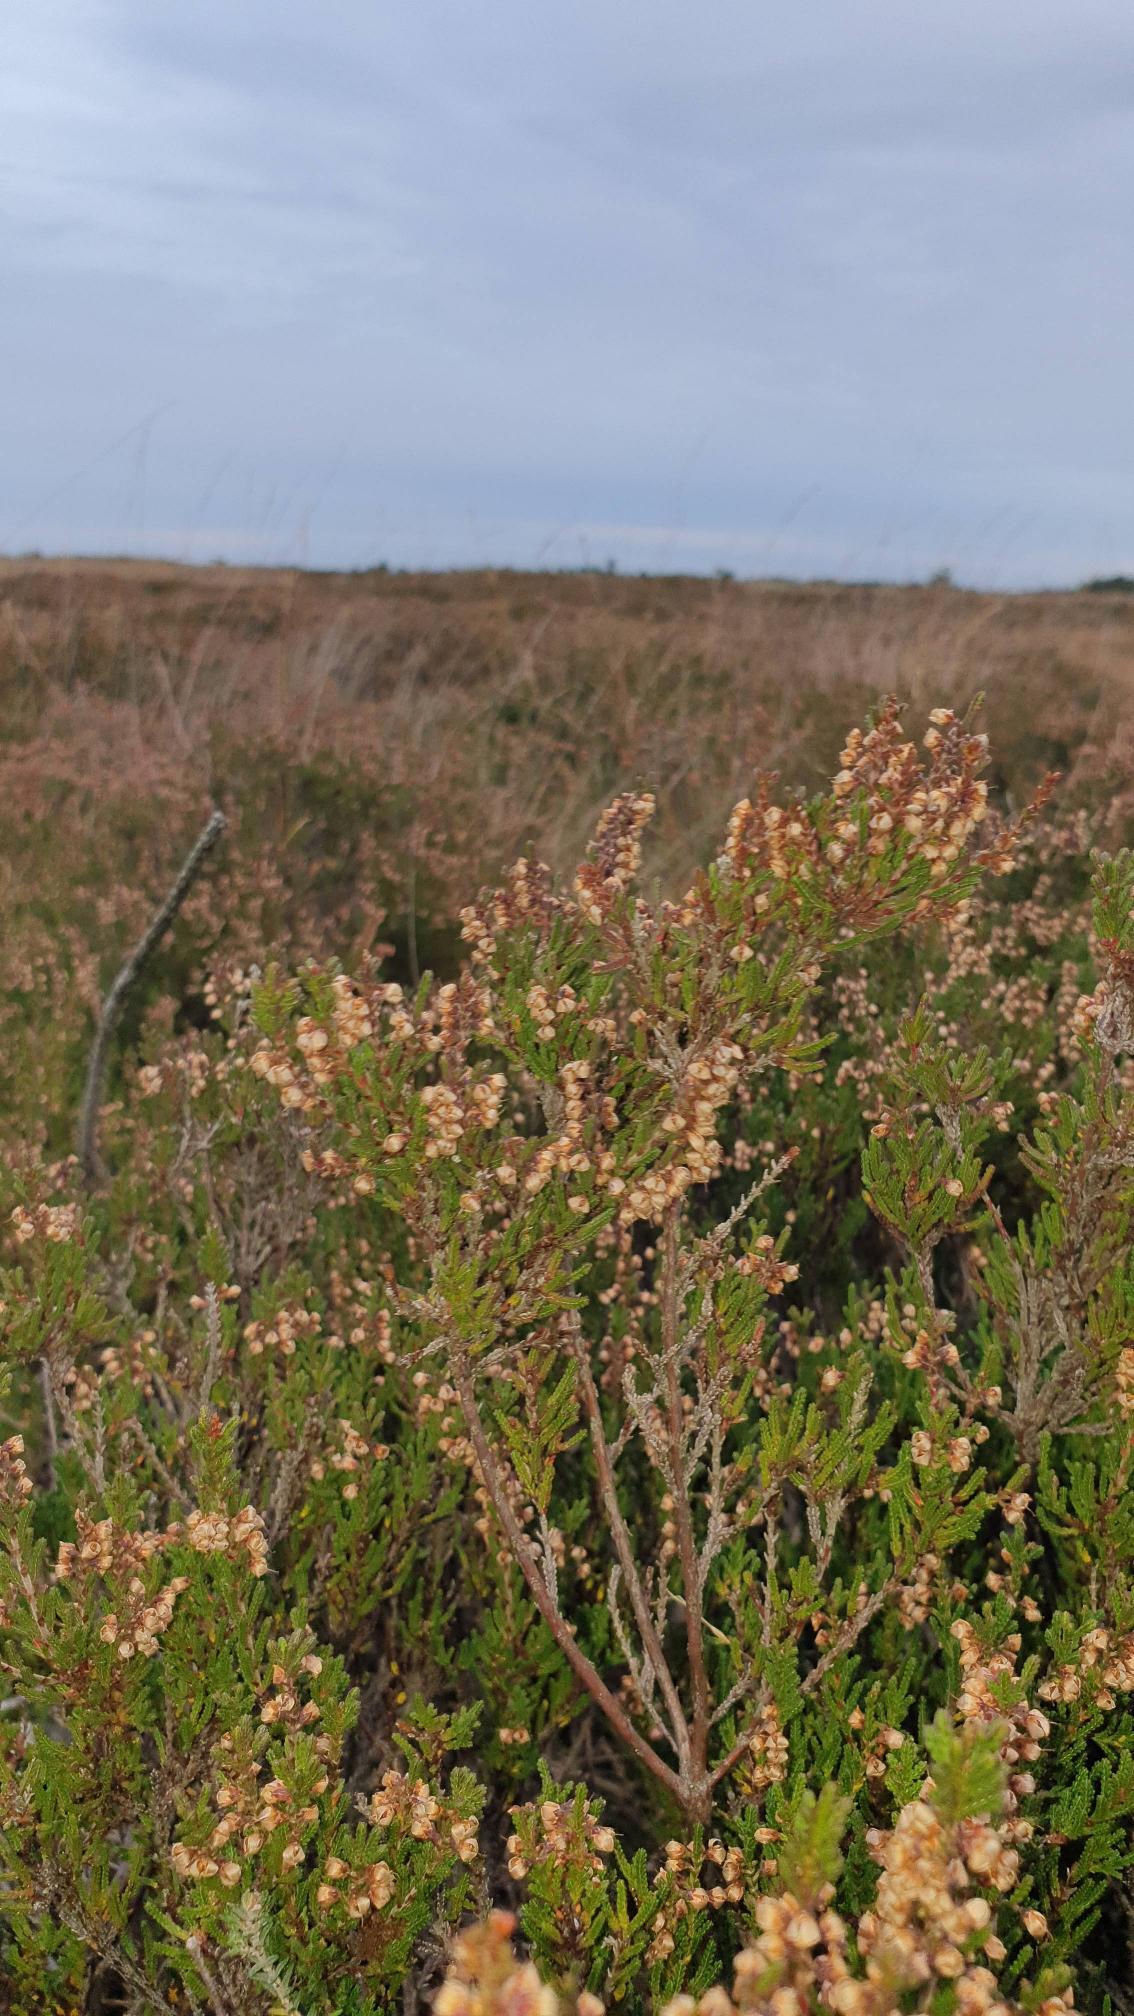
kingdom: Plantae
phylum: Tracheophyta
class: Magnoliopsida
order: Ericales
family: Ericaceae
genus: Calluna
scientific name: Calluna vulgaris
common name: Hedelyng
